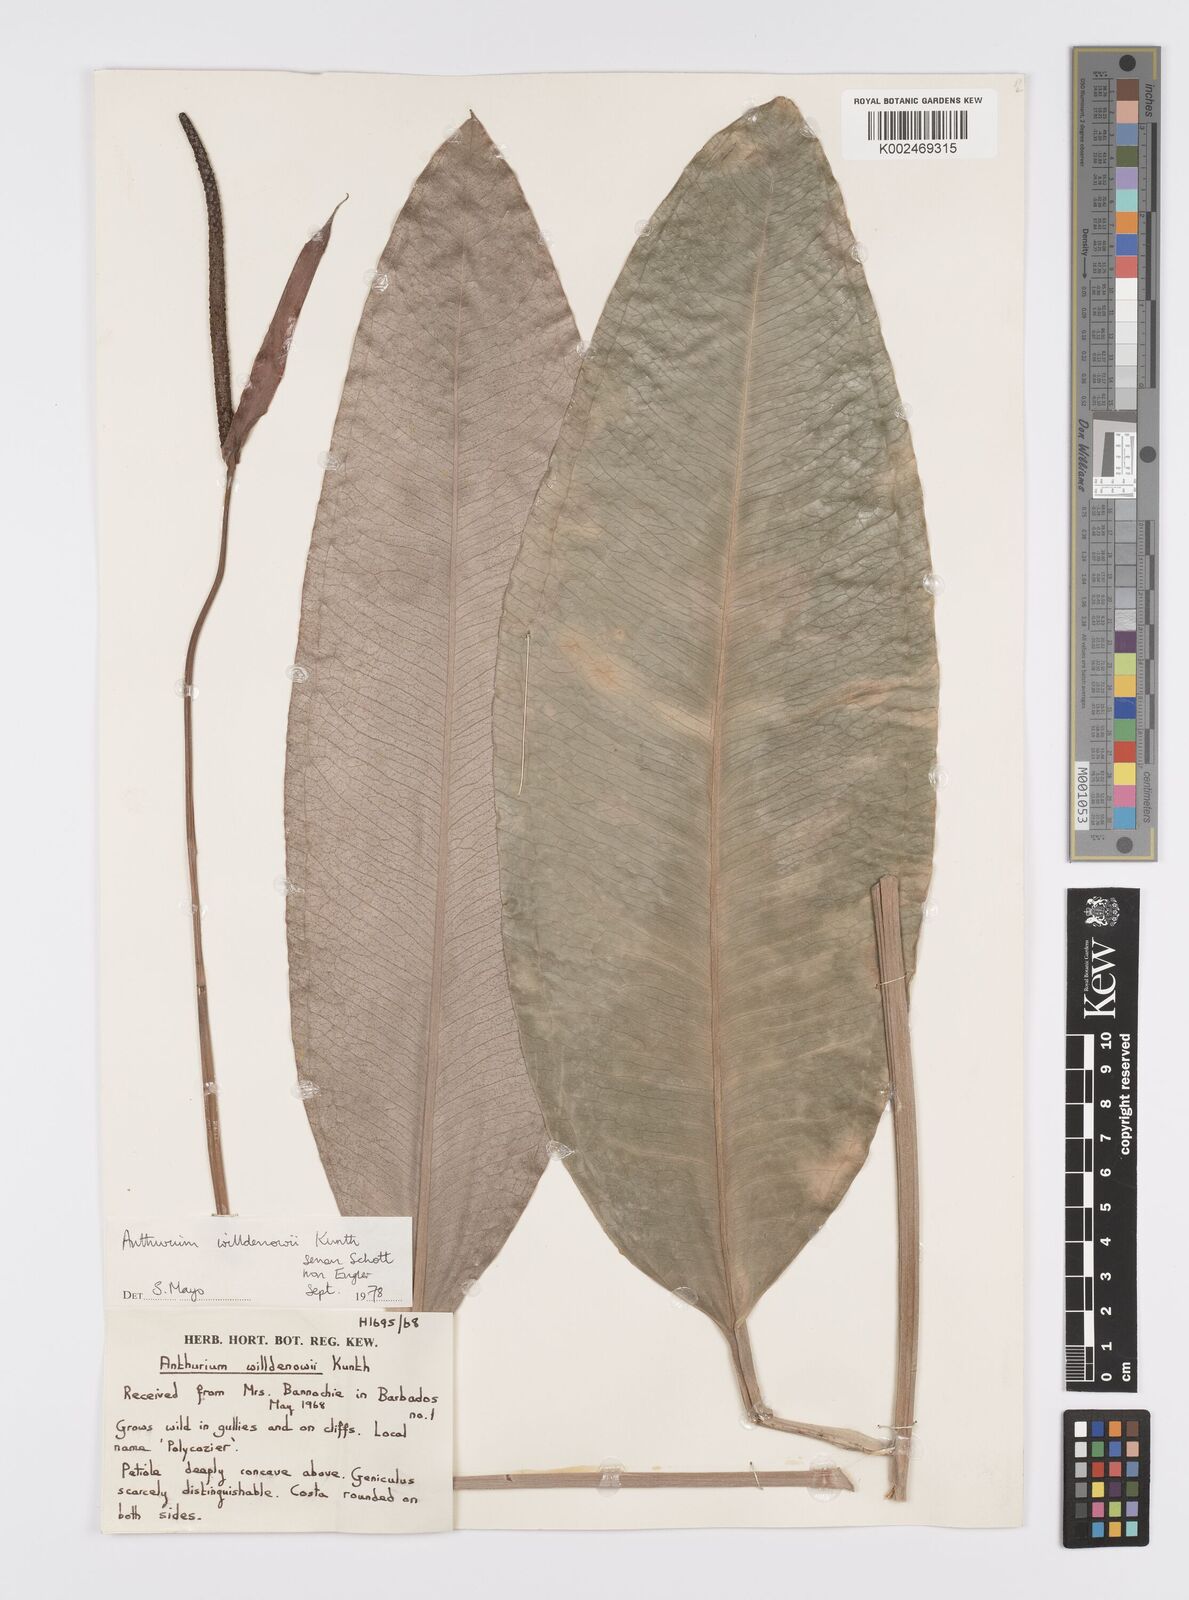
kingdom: Plantae
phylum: Tracheophyta
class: Liliopsida
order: Alismatales
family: Araceae
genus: Anthurium
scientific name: Anthurium willdenowii
